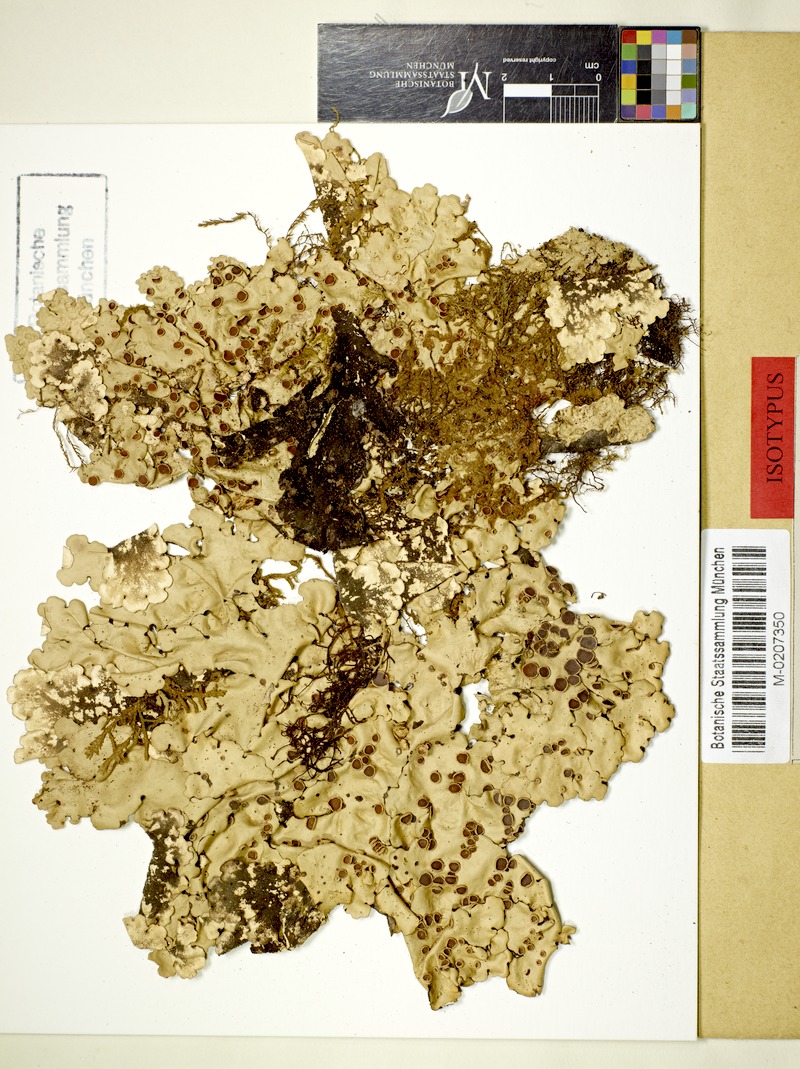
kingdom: Fungi
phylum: Ascomycota
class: Lecanoromycetes
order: Peltigerales
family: Lobariaceae
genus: Yoshimuriella
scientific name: Yoshimuriella deplanata
